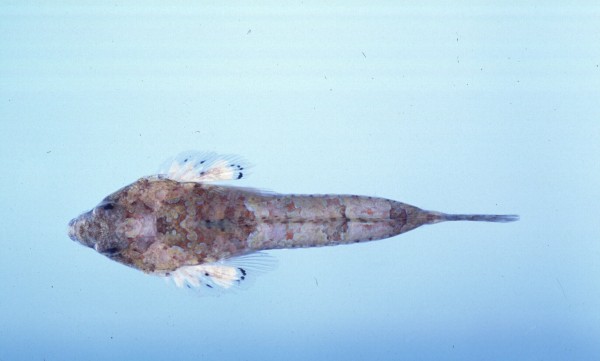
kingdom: Animalia
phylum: Chordata
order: Perciformes
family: Callionymidae
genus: Callionymus
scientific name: Callionymus marleyi
